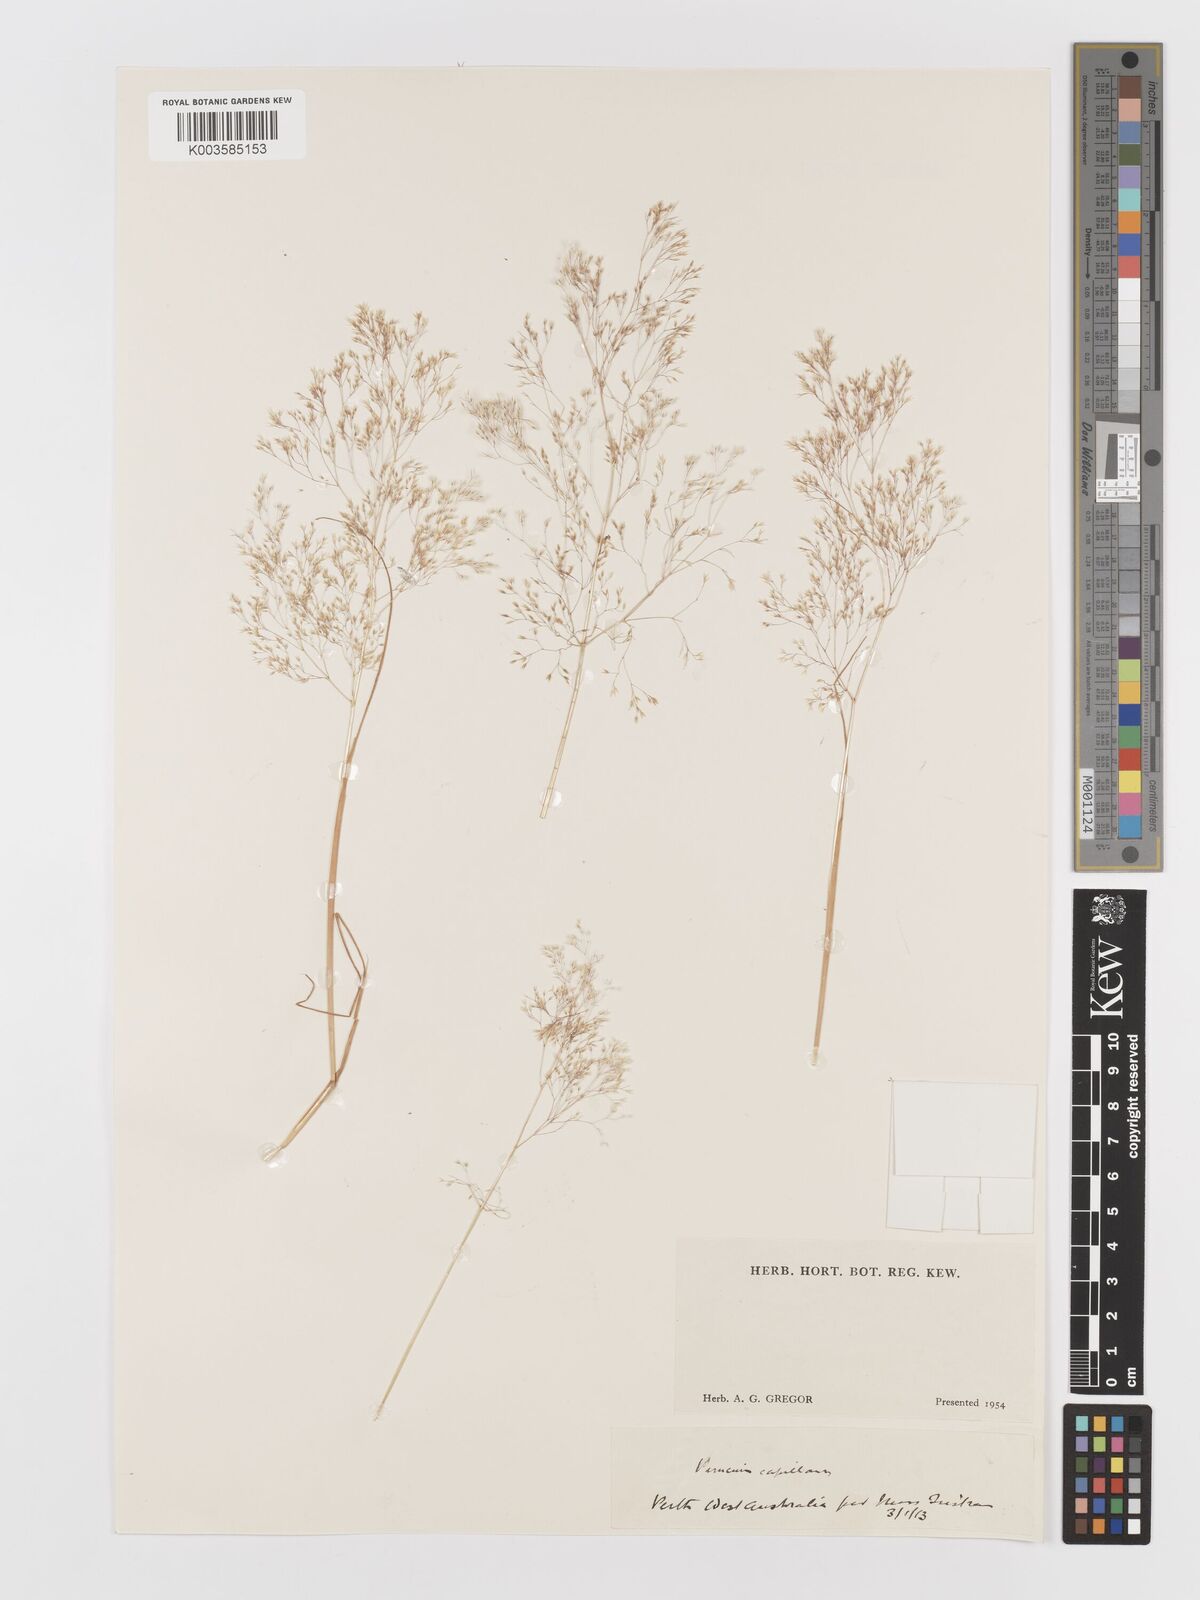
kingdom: Plantae
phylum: Tracheophyta
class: Liliopsida
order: Poales
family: Poaceae
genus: Aira
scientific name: Aira elegans
